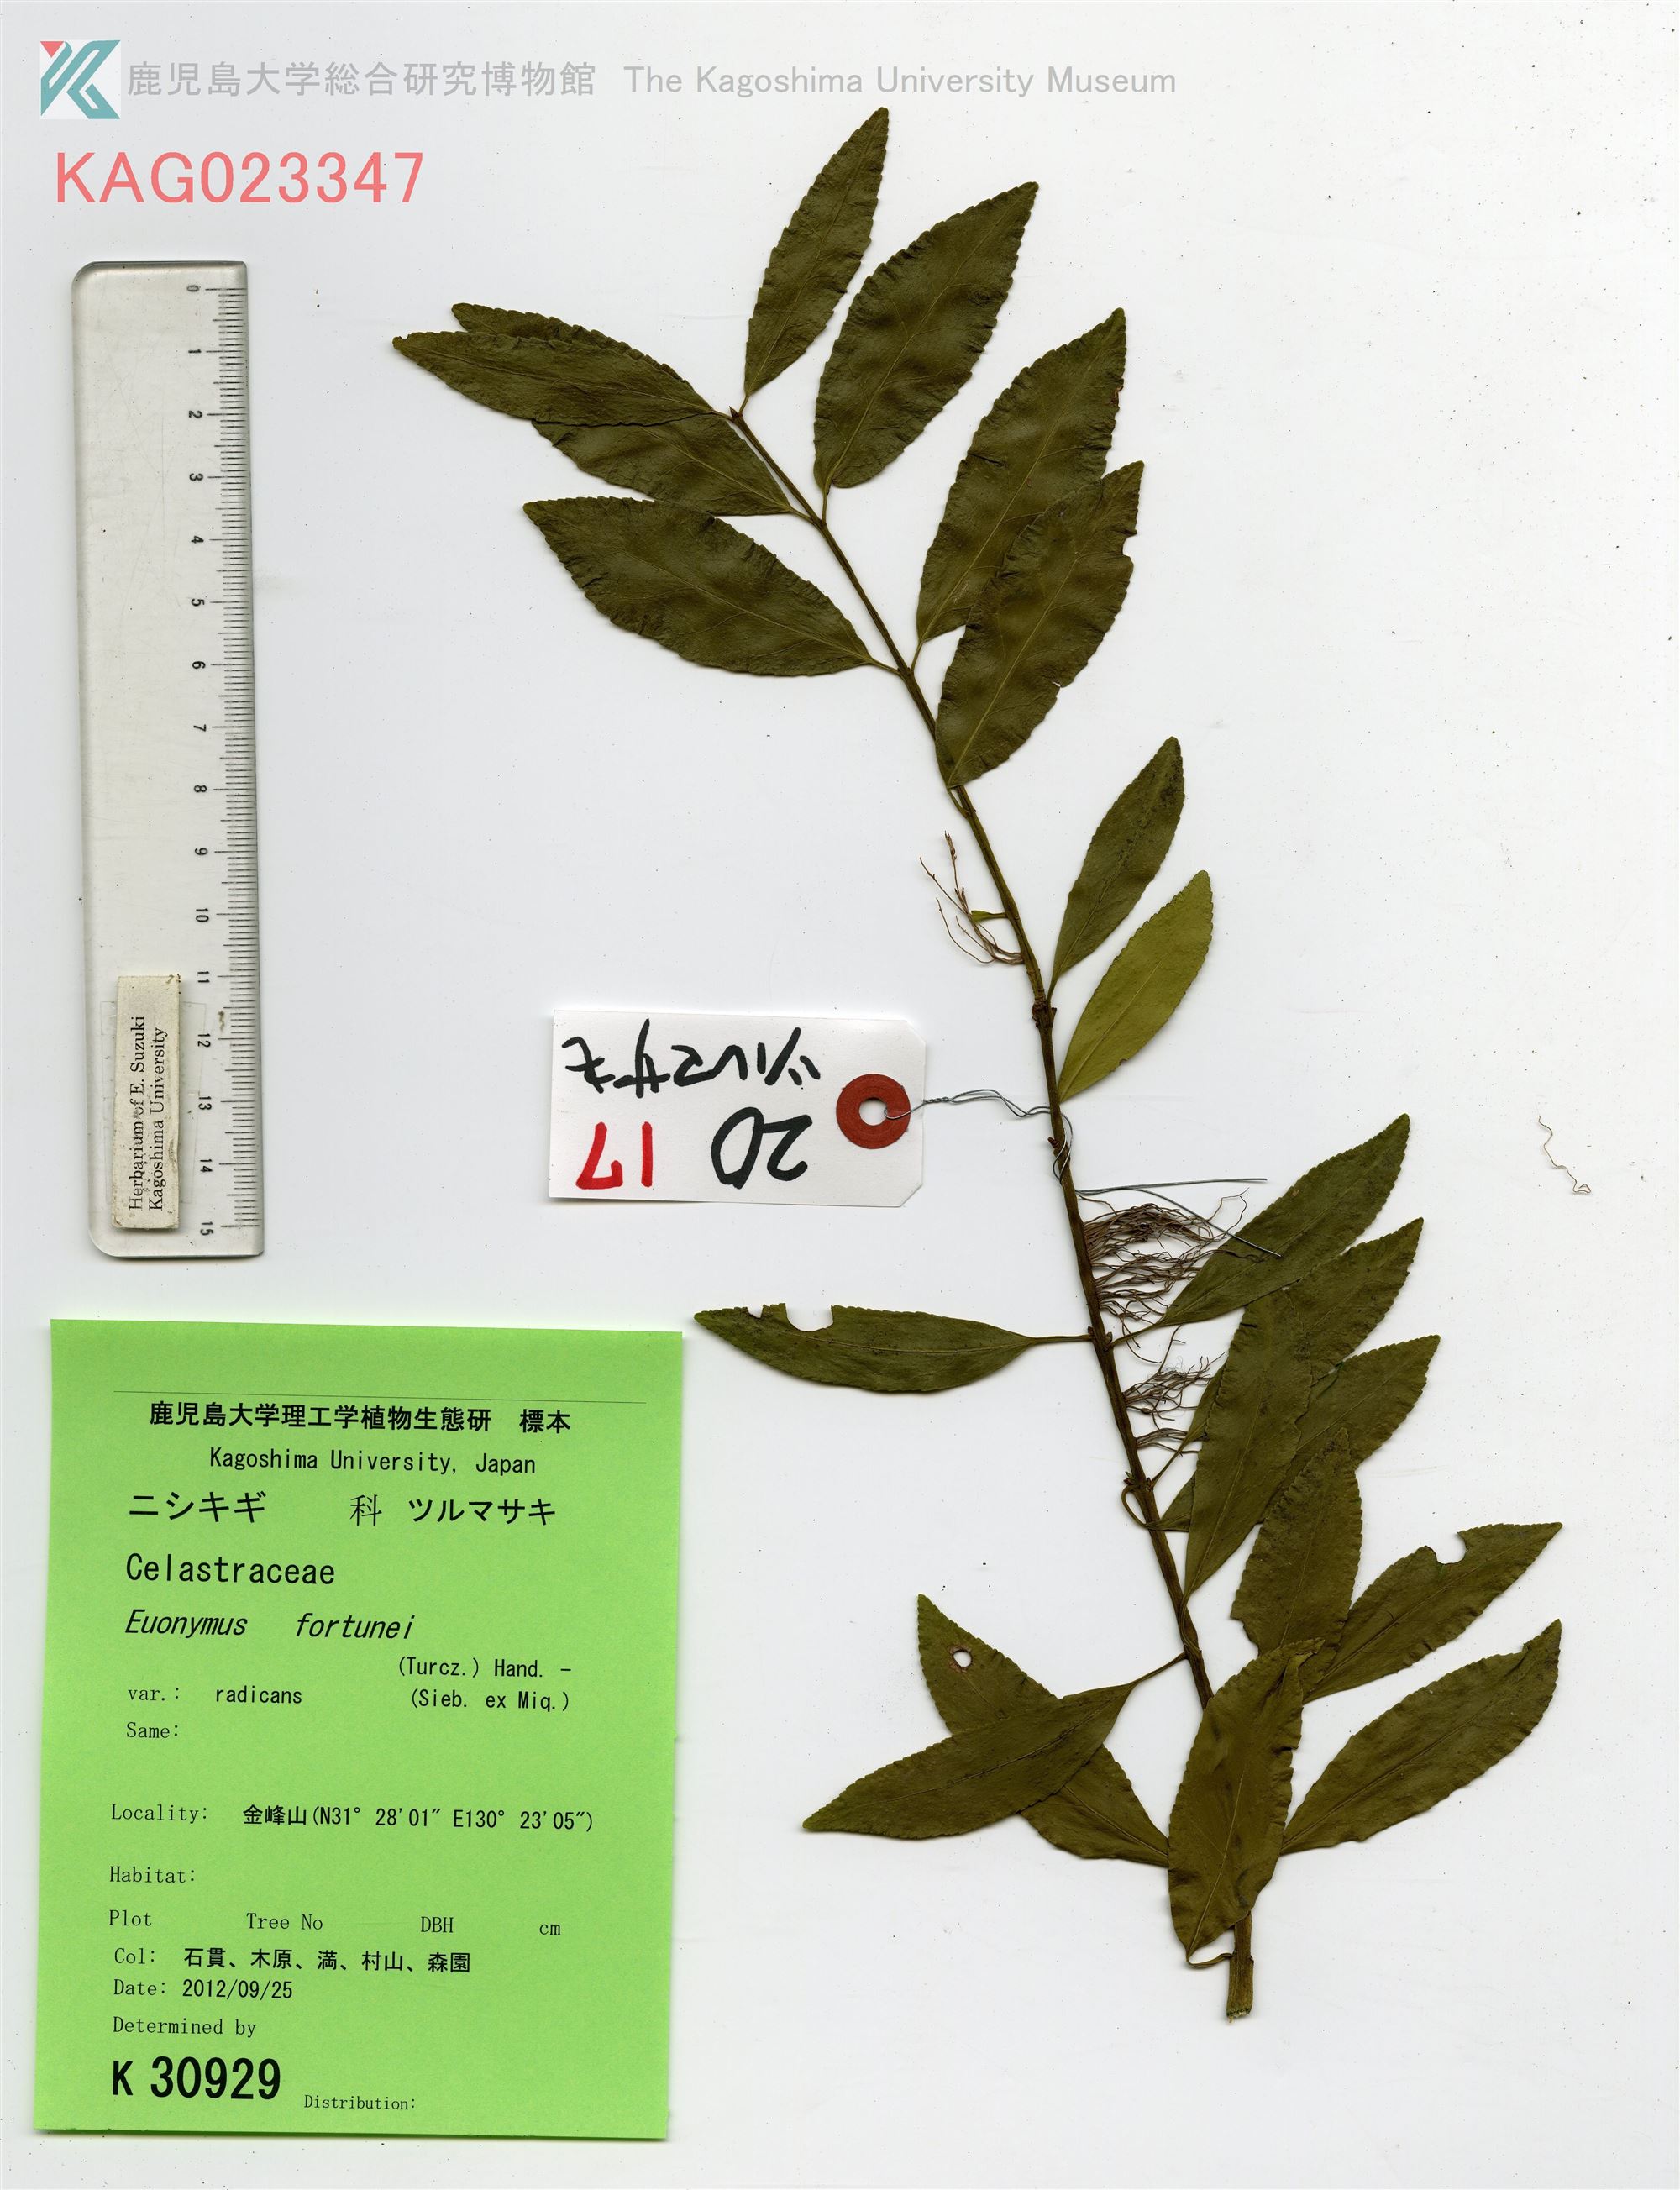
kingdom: Plantae
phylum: Tracheophyta
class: Magnoliopsida
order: Celastrales
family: Celastraceae
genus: Euonymus
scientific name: Euonymus fortunei
